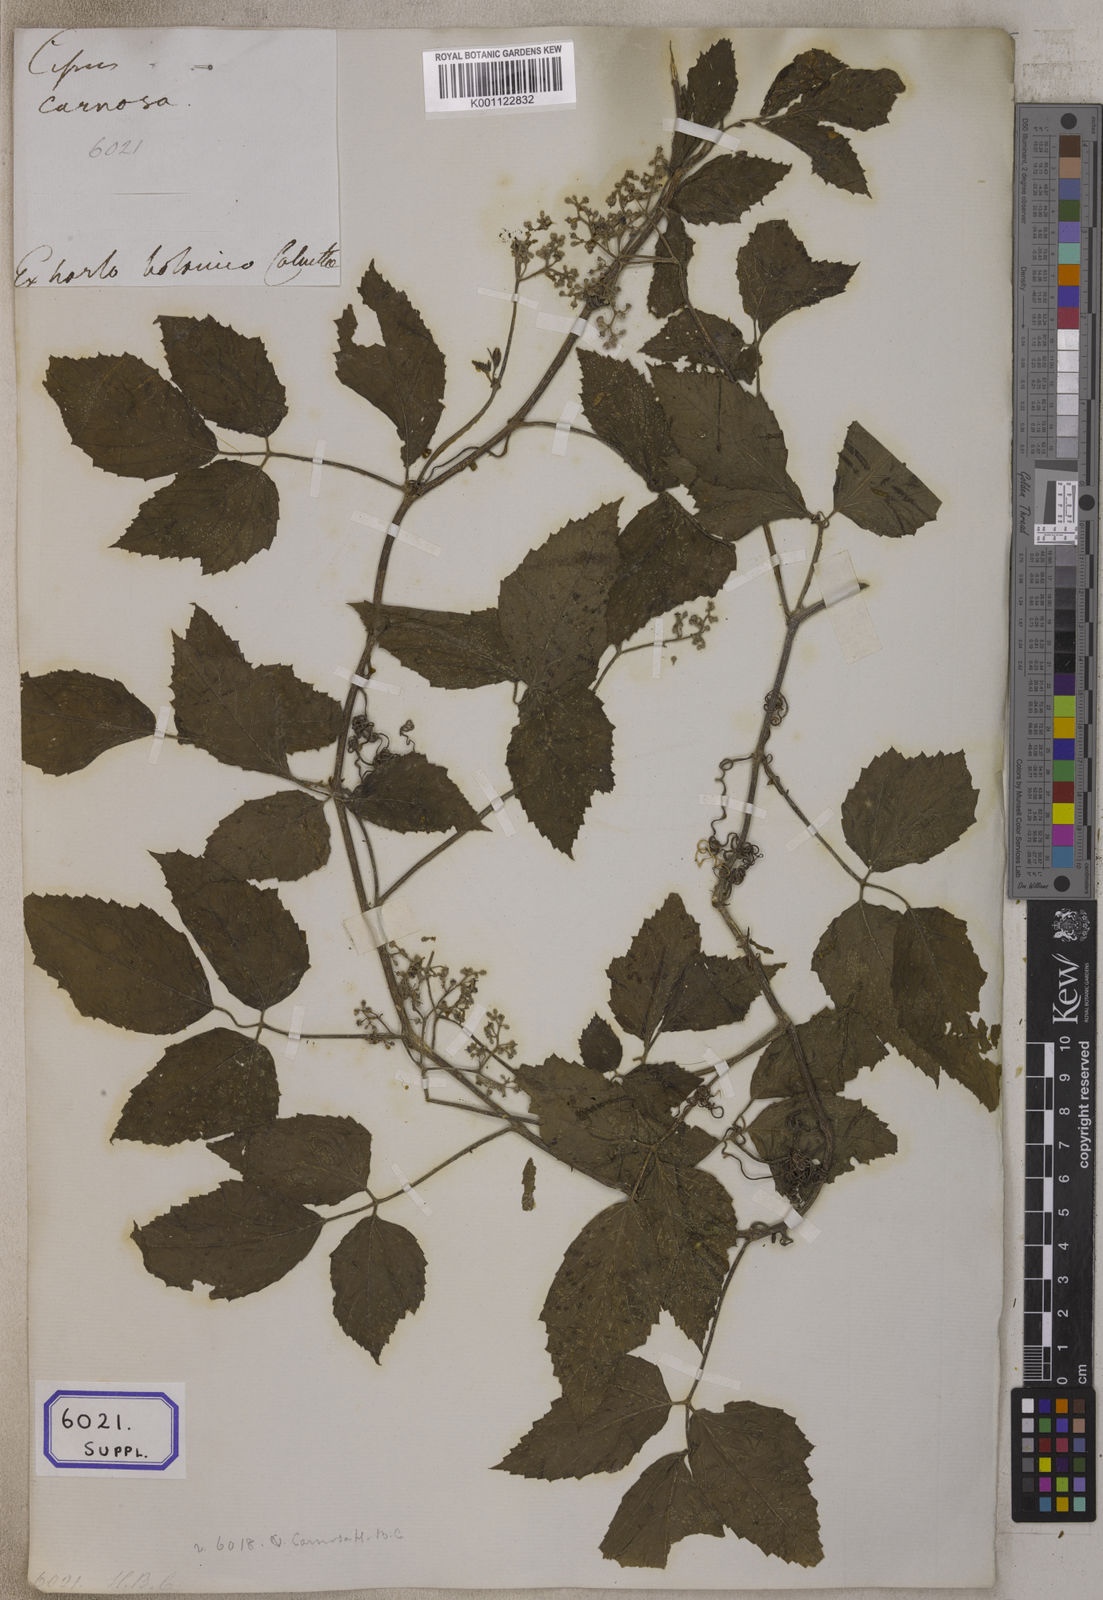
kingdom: Plantae
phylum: Tracheophyta
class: Magnoliopsida
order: Vitales
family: Vitaceae
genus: Causonis
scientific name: Causonis trifolia
